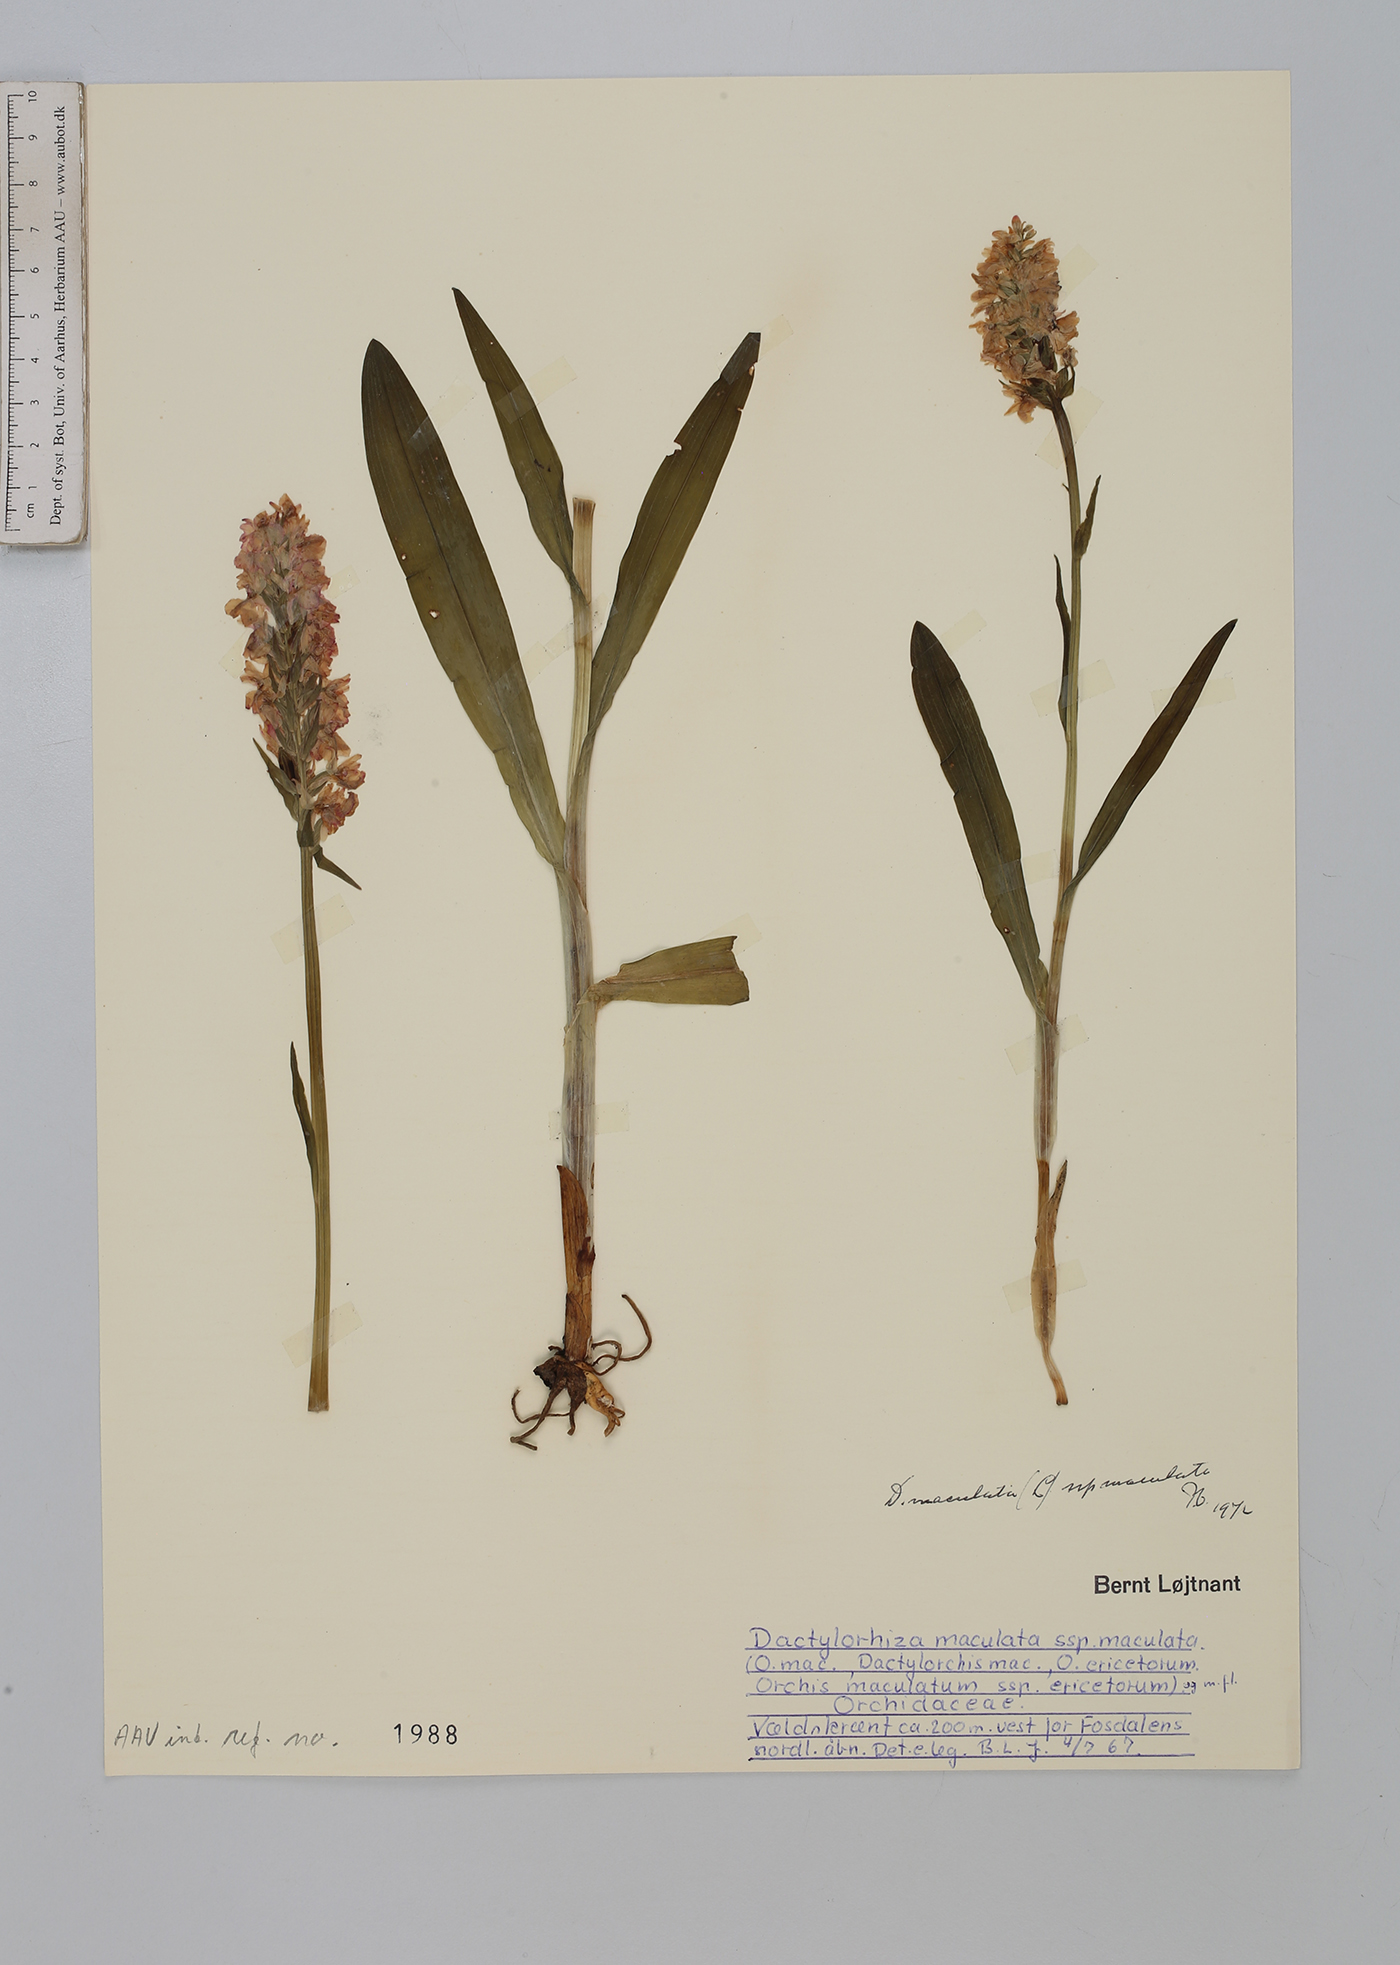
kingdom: Plantae
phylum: Tracheophyta
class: Liliopsida
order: Asparagales
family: Orchidaceae
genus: Dactylorhiza
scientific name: Dactylorhiza maculata
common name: Heath spotted-orchid
